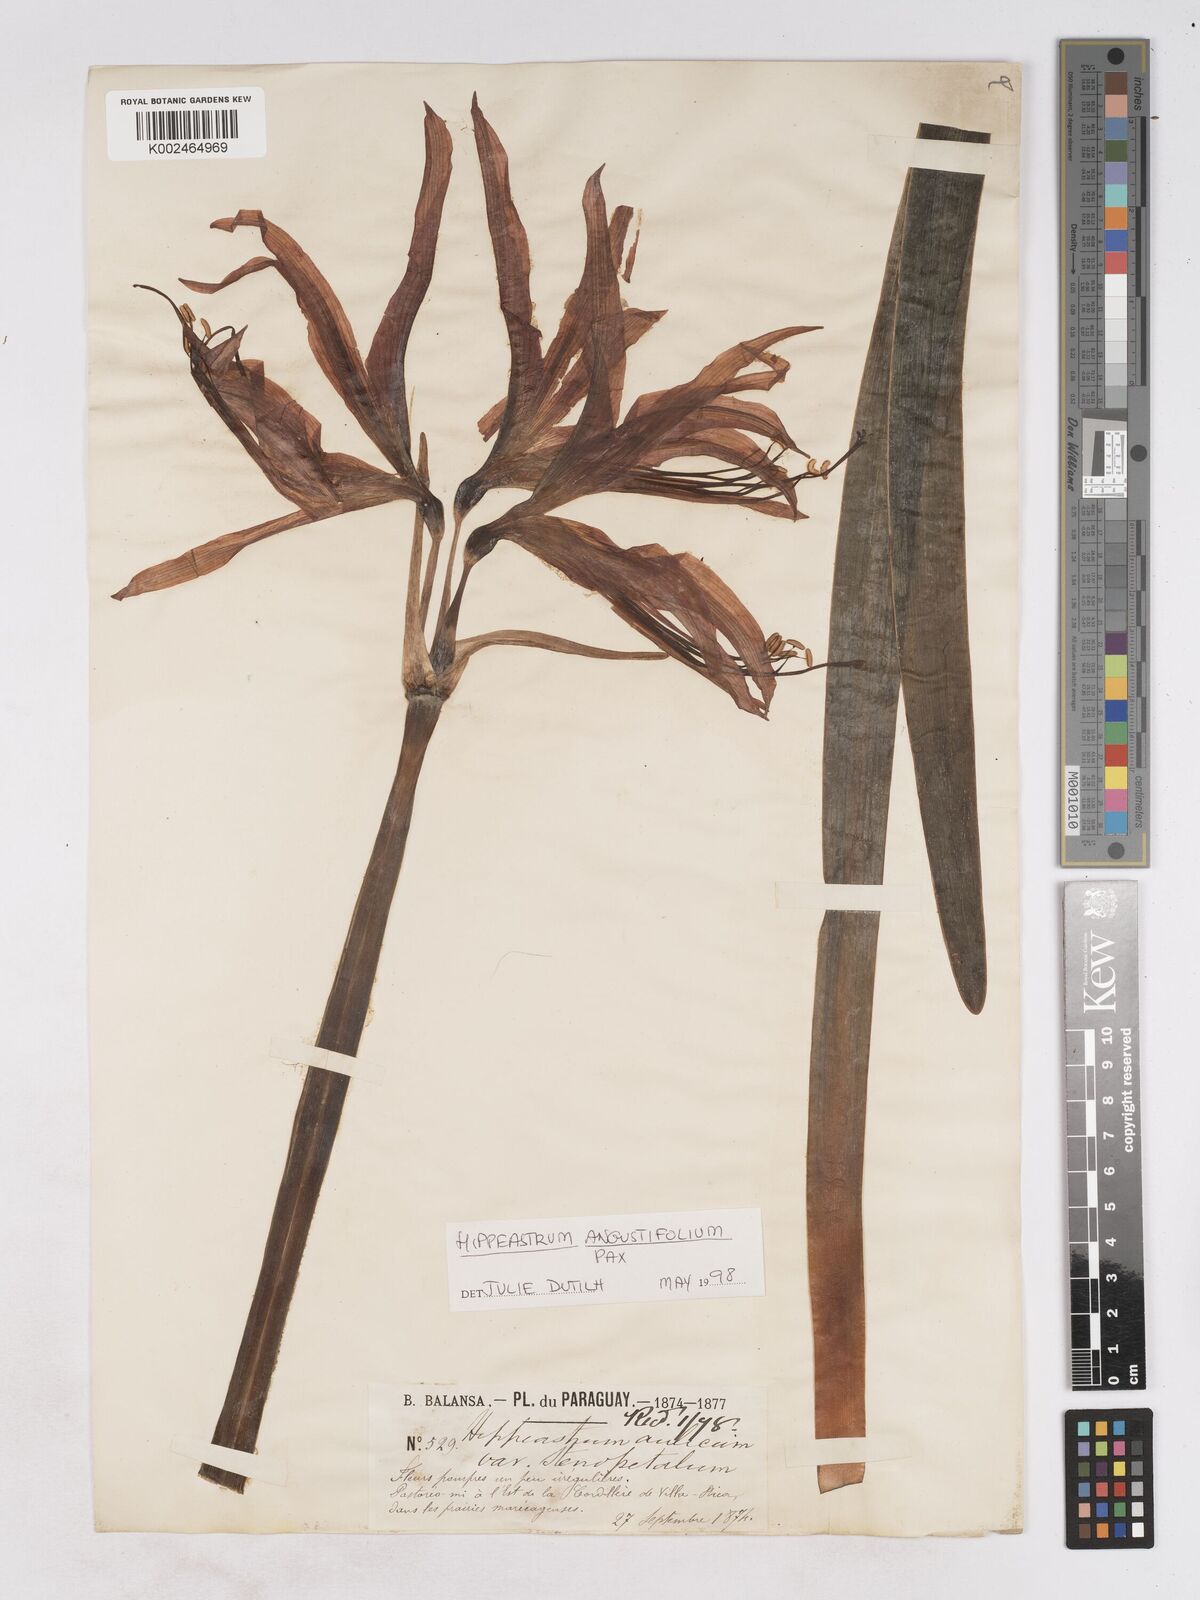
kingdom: Plantae
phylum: Tracheophyta
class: Liliopsida
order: Asparagales
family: Amaryllidaceae
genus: Hippeastrum
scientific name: Hippeastrum angustifolium
